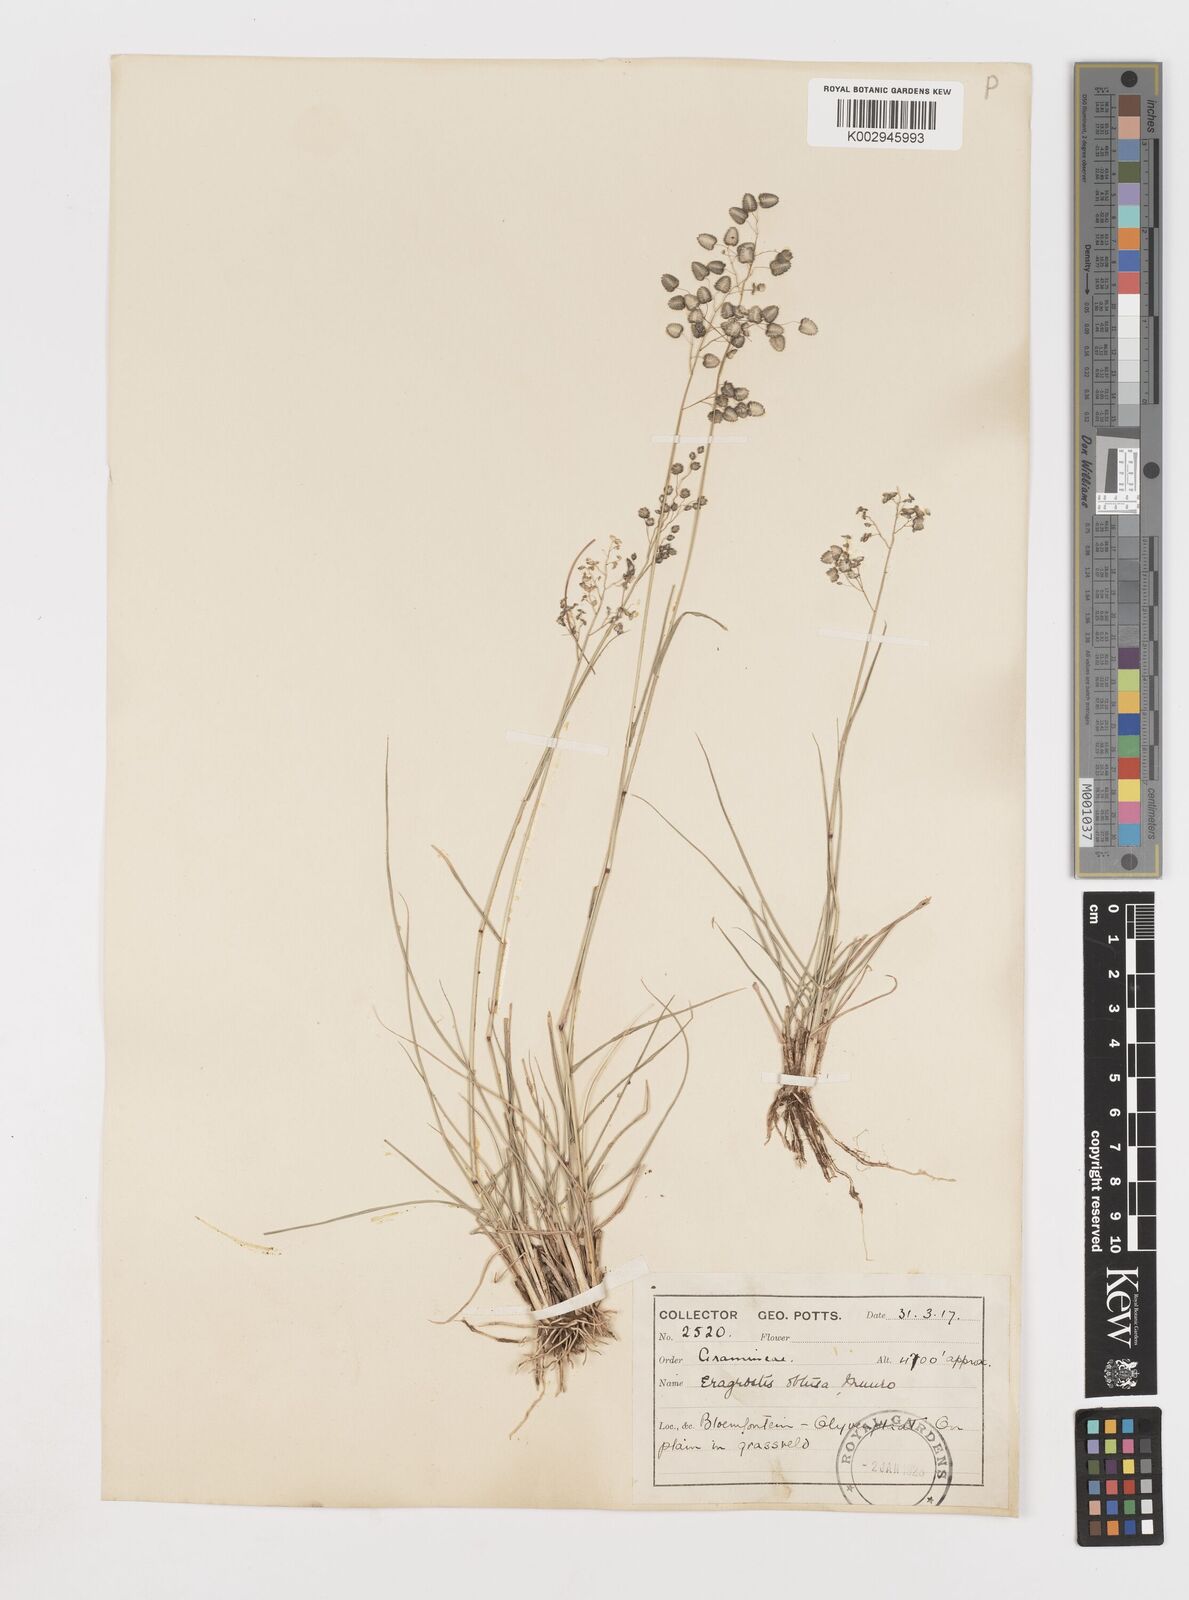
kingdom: Plantae
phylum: Tracheophyta
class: Liliopsida
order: Poales
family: Poaceae
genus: Eragrostis
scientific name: Eragrostis obtusa
